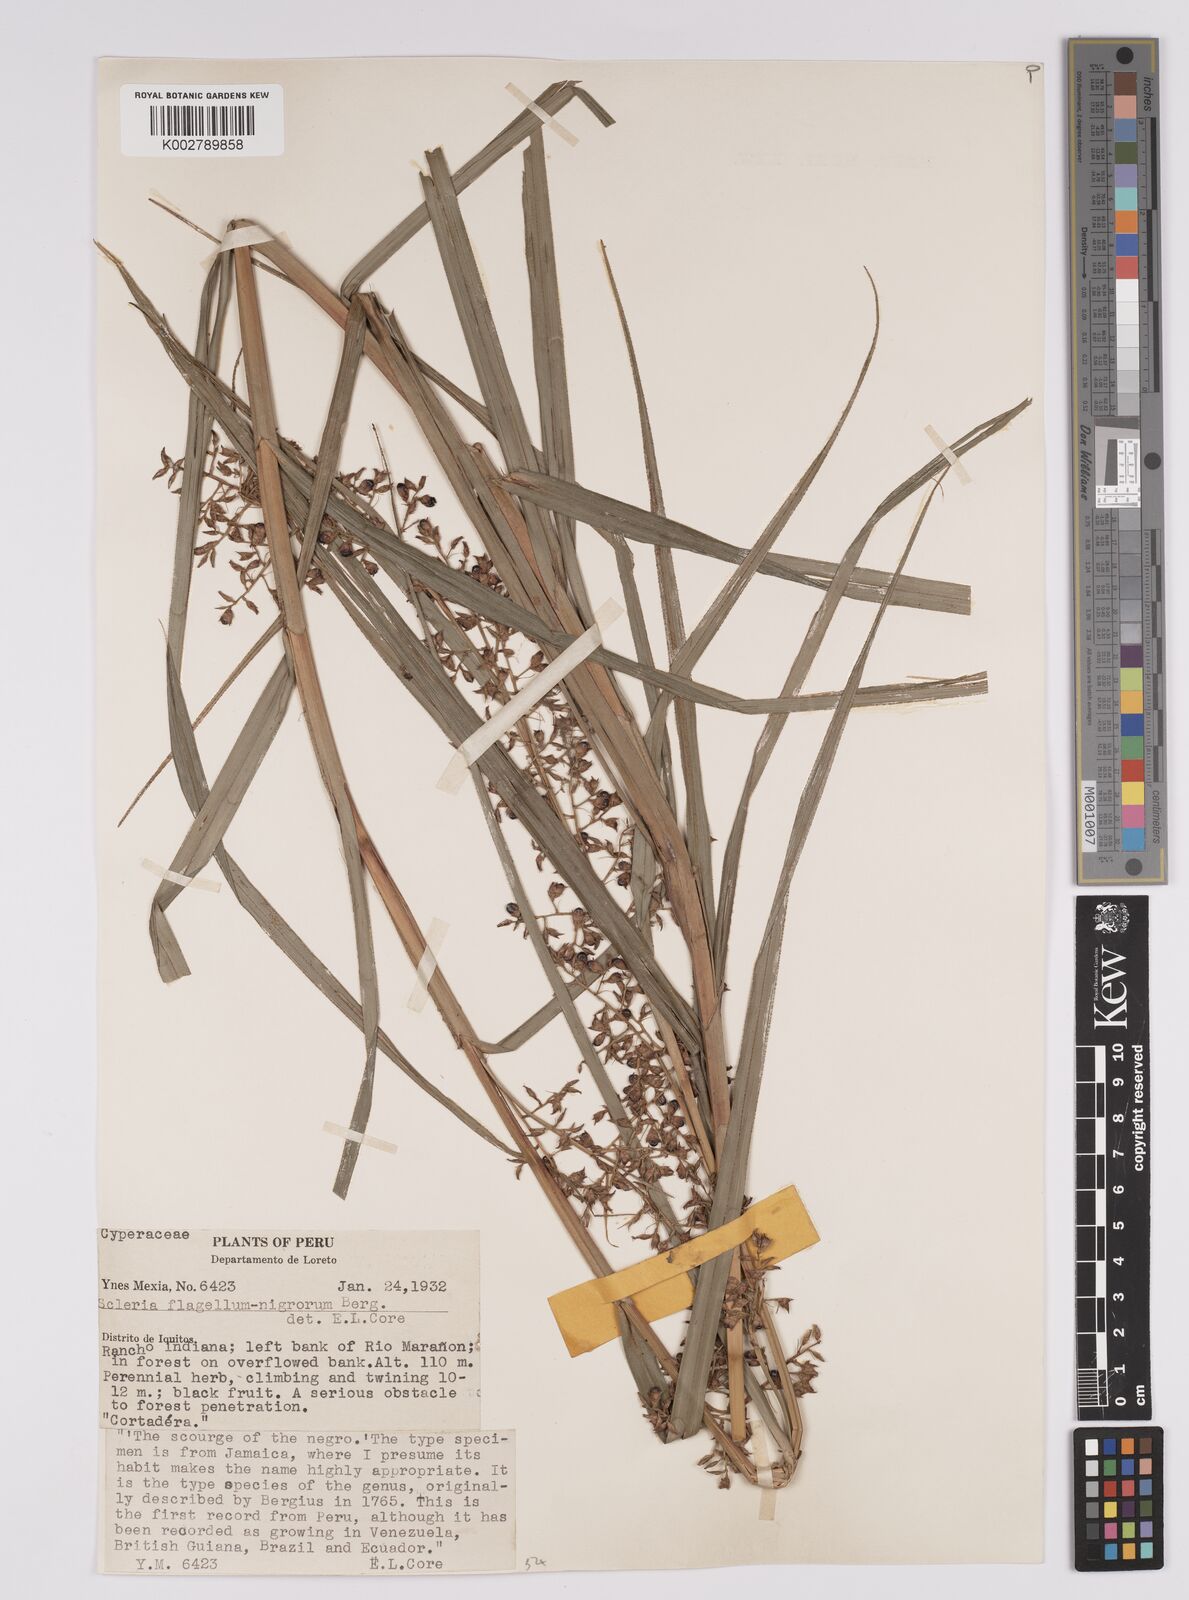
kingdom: Plantae
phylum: Tracheophyta
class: Liliopsida
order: Poales
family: Cyperaceae
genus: Scleria
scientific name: Scleria flagellum-nigrorum
